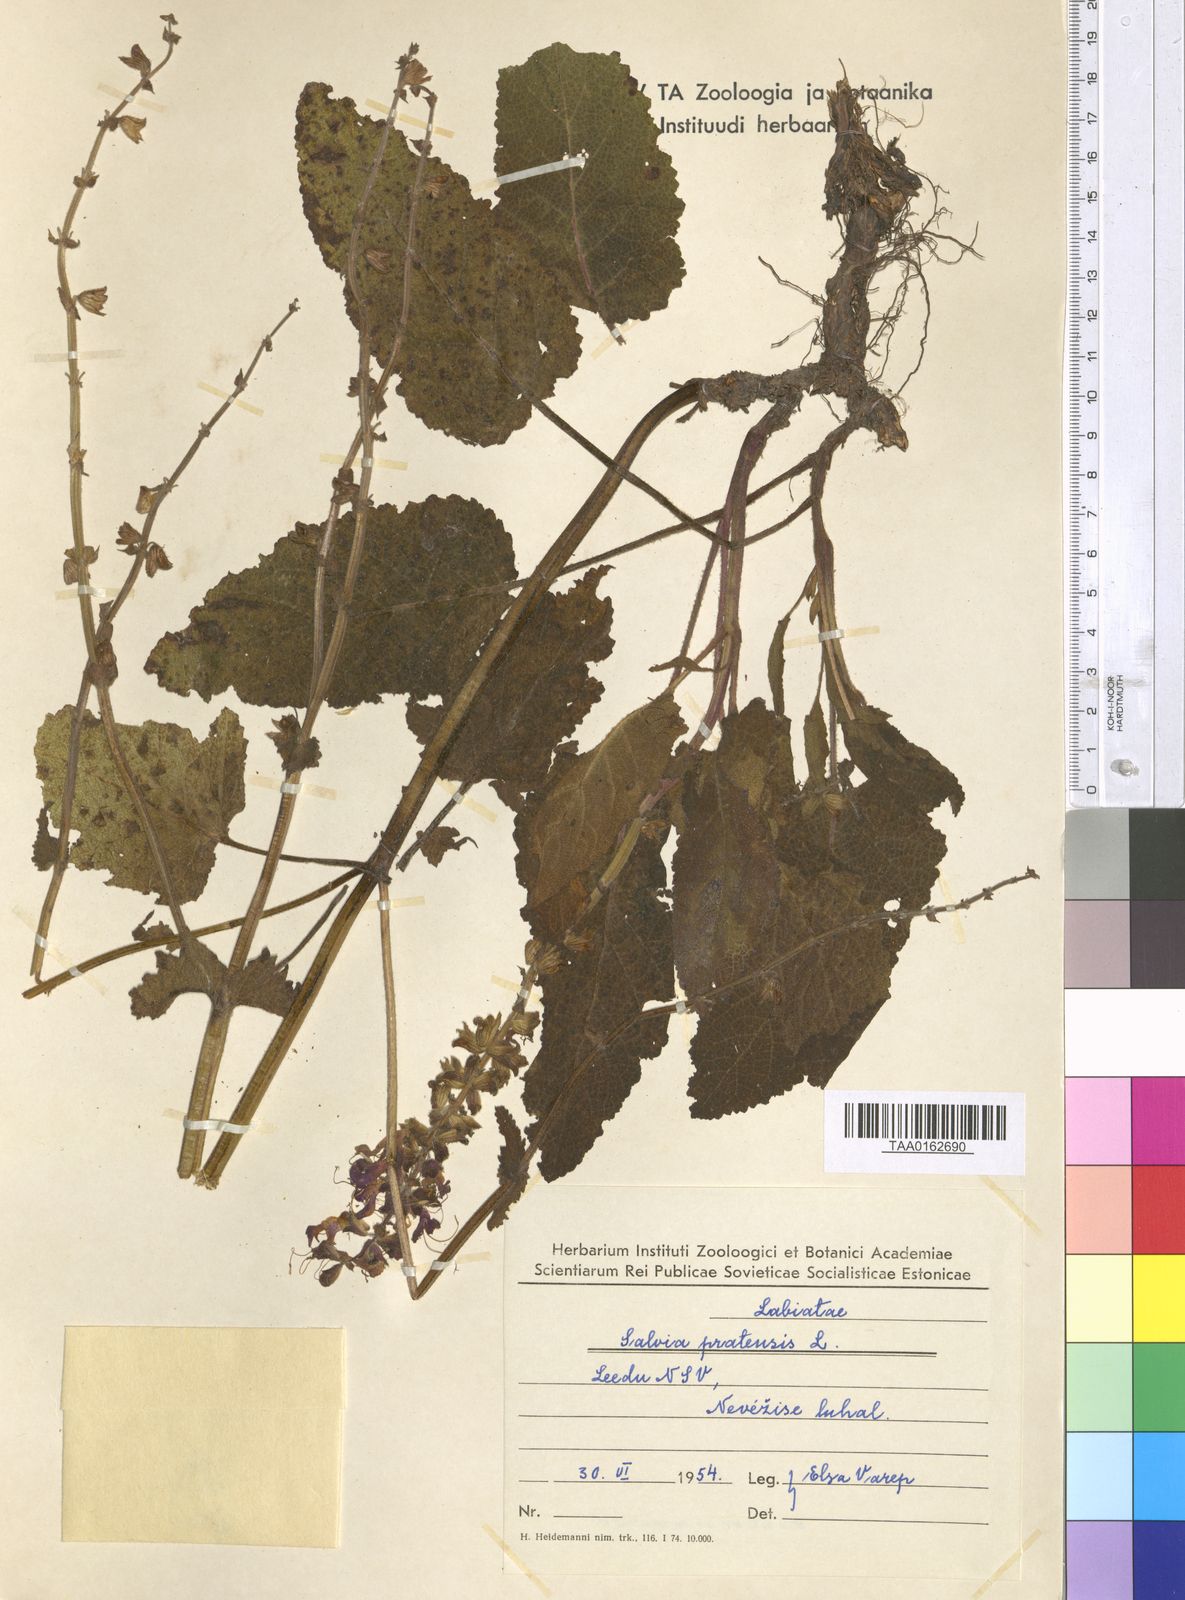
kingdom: Plantae
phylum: Tracheophyta
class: Magnoliopsida
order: Lamiales
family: Lamiaceae
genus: Salvia
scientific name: Salvia pratensis
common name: Meadow sage
